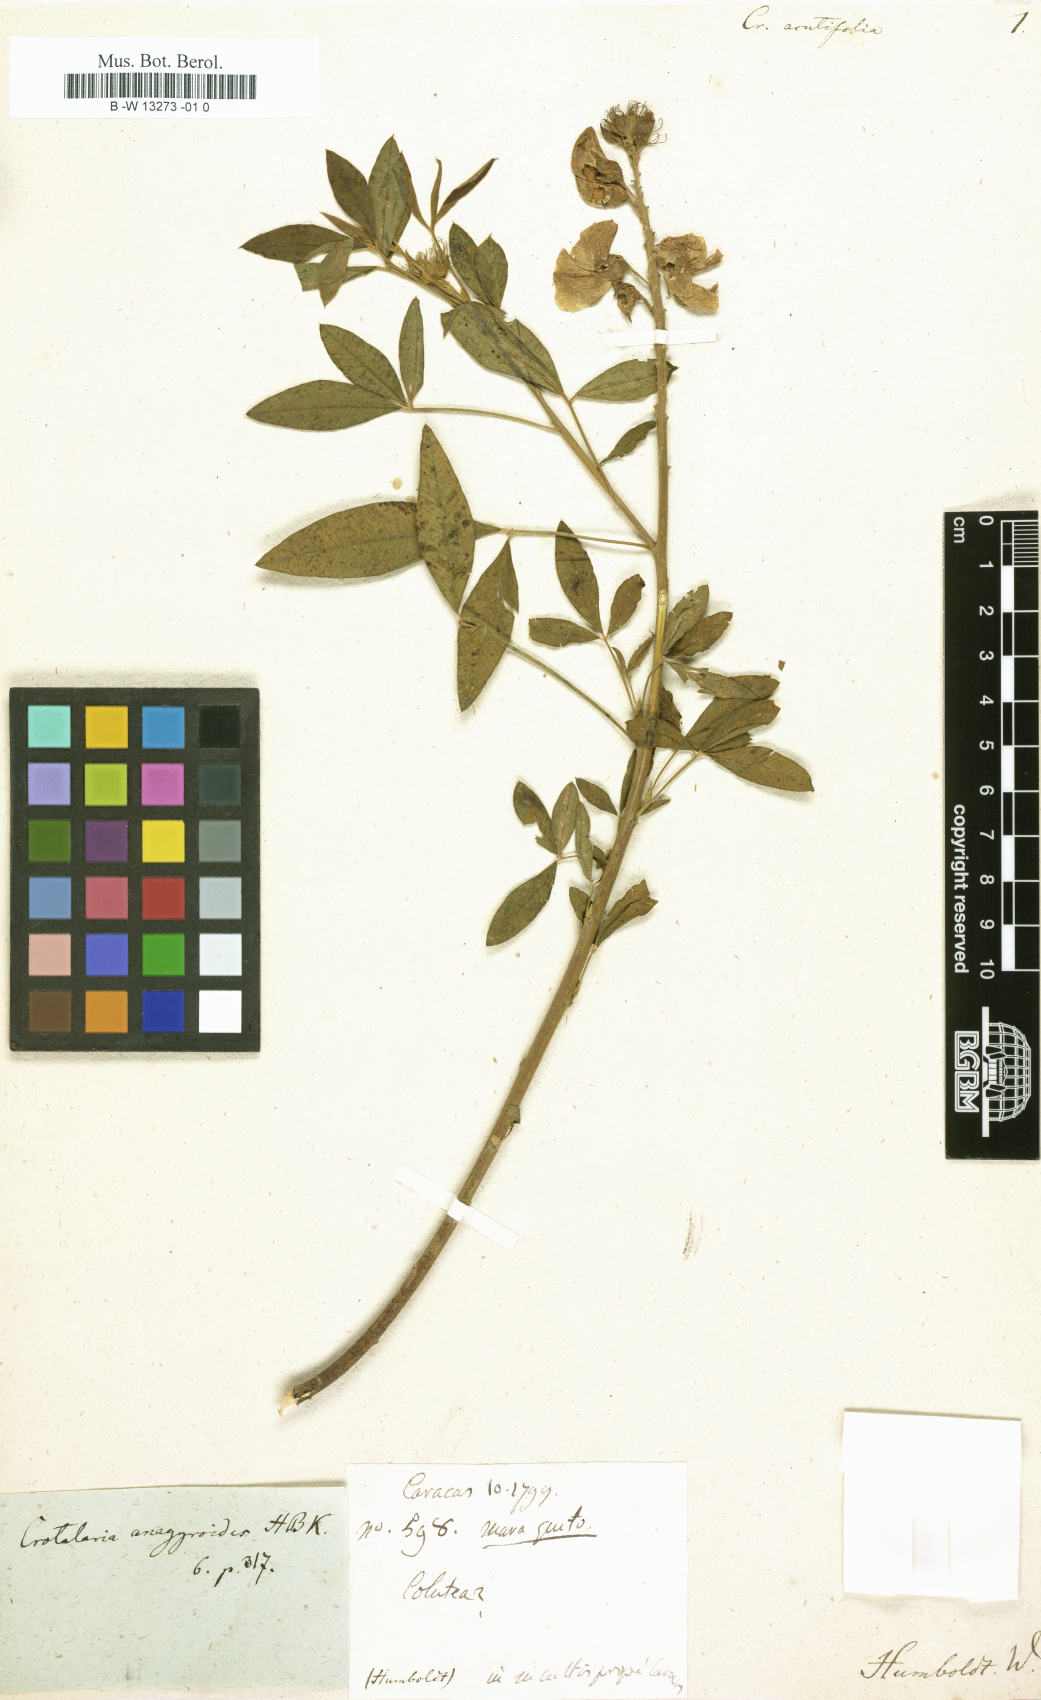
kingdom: Plantae
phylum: Tracheophyta
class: Magnoliopsida
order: Fabales
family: Fabaceae
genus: Crotalaria
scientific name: Crotalaria glauca
